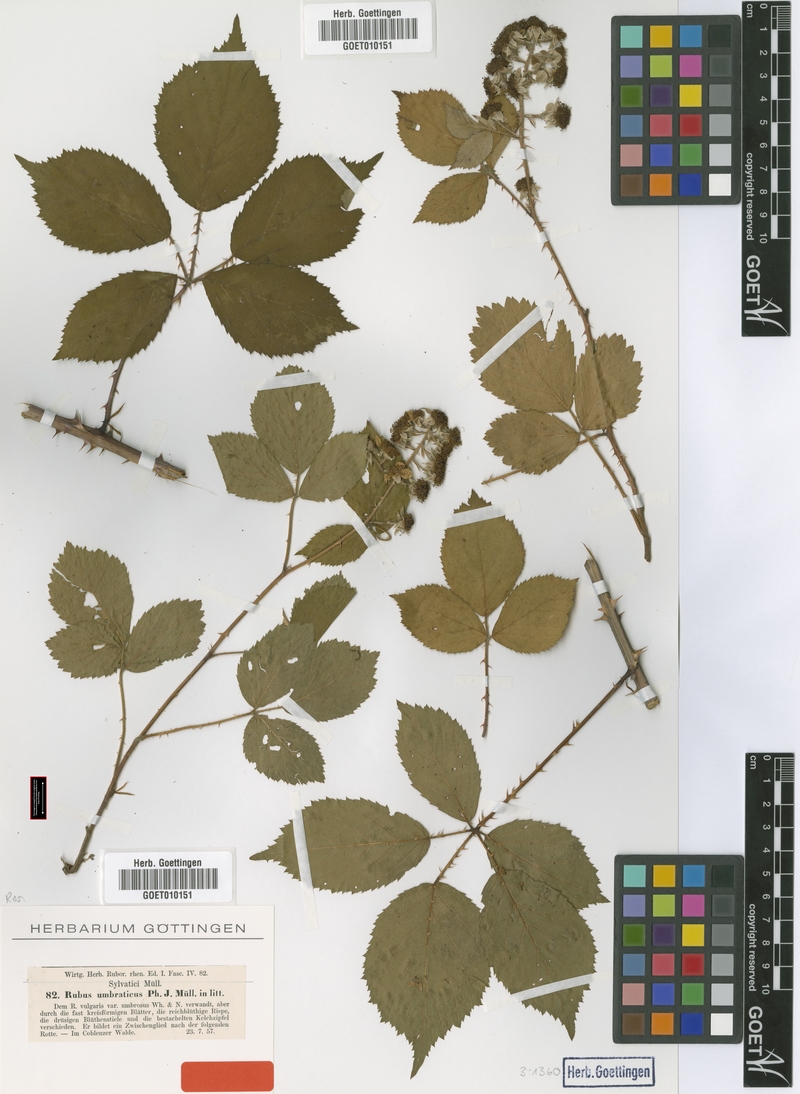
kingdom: Plantae
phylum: Tracheophyta
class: Magnoliopsida
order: Rosales
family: Rosaceae
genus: Rubus
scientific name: Rubus umbrosus
